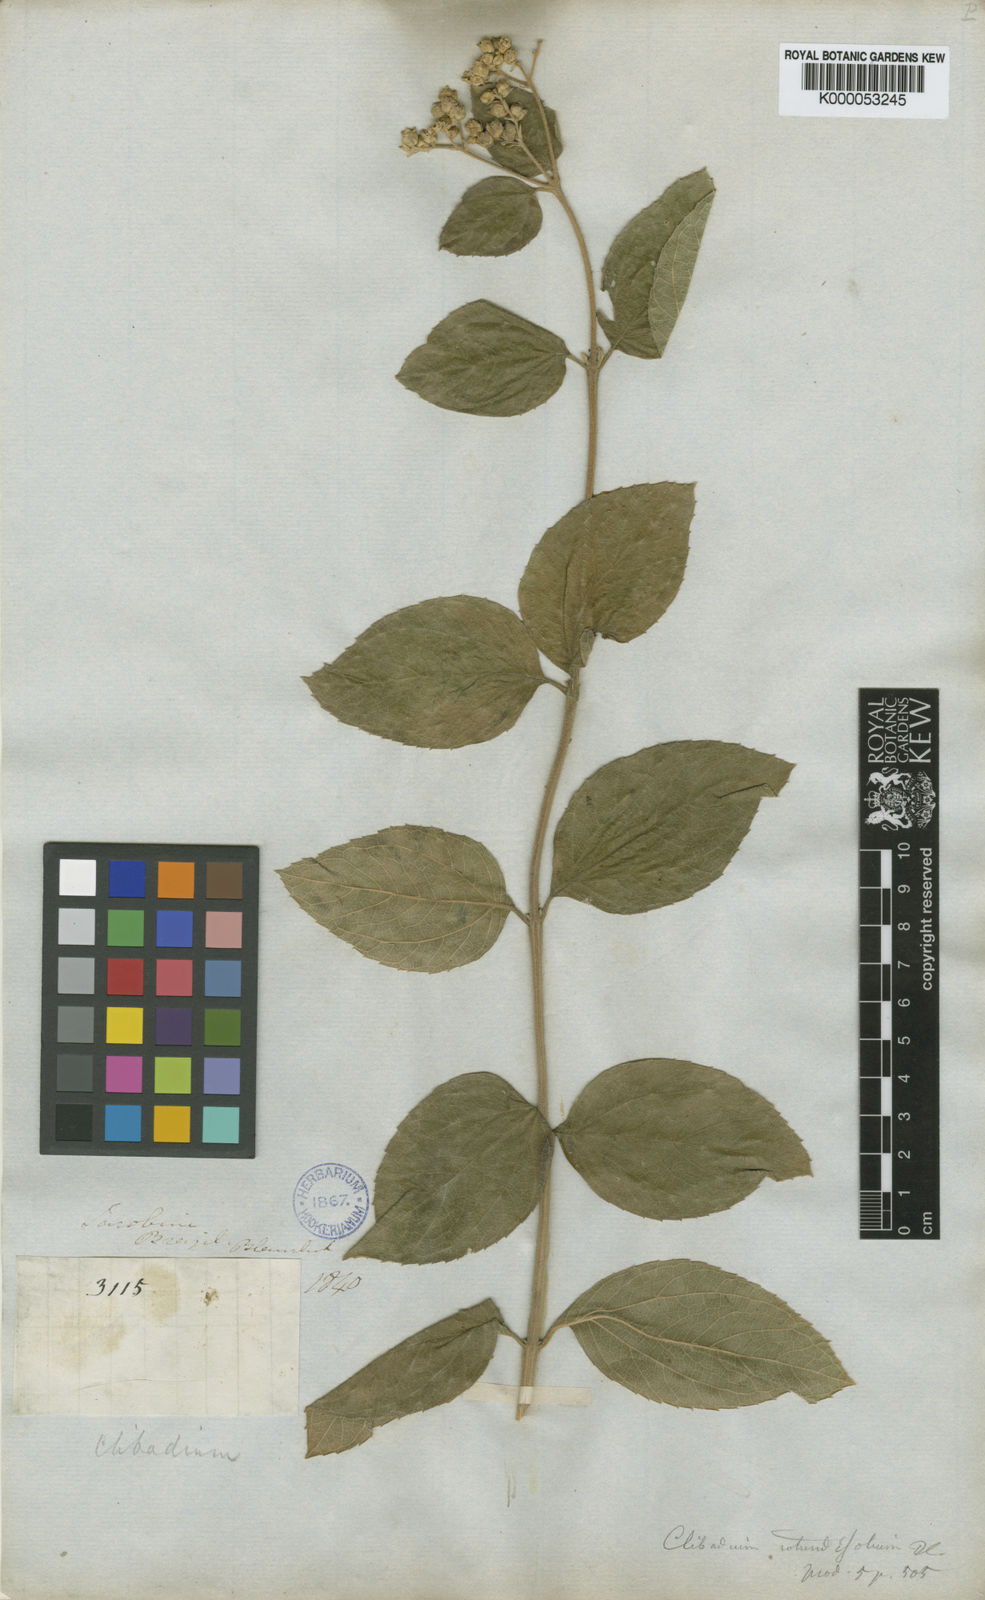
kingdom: Plantae
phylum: Tracheophyta
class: Magnoliopsida
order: Asterales
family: Asteraceae
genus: Clibadium
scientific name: Clibadium armanii
